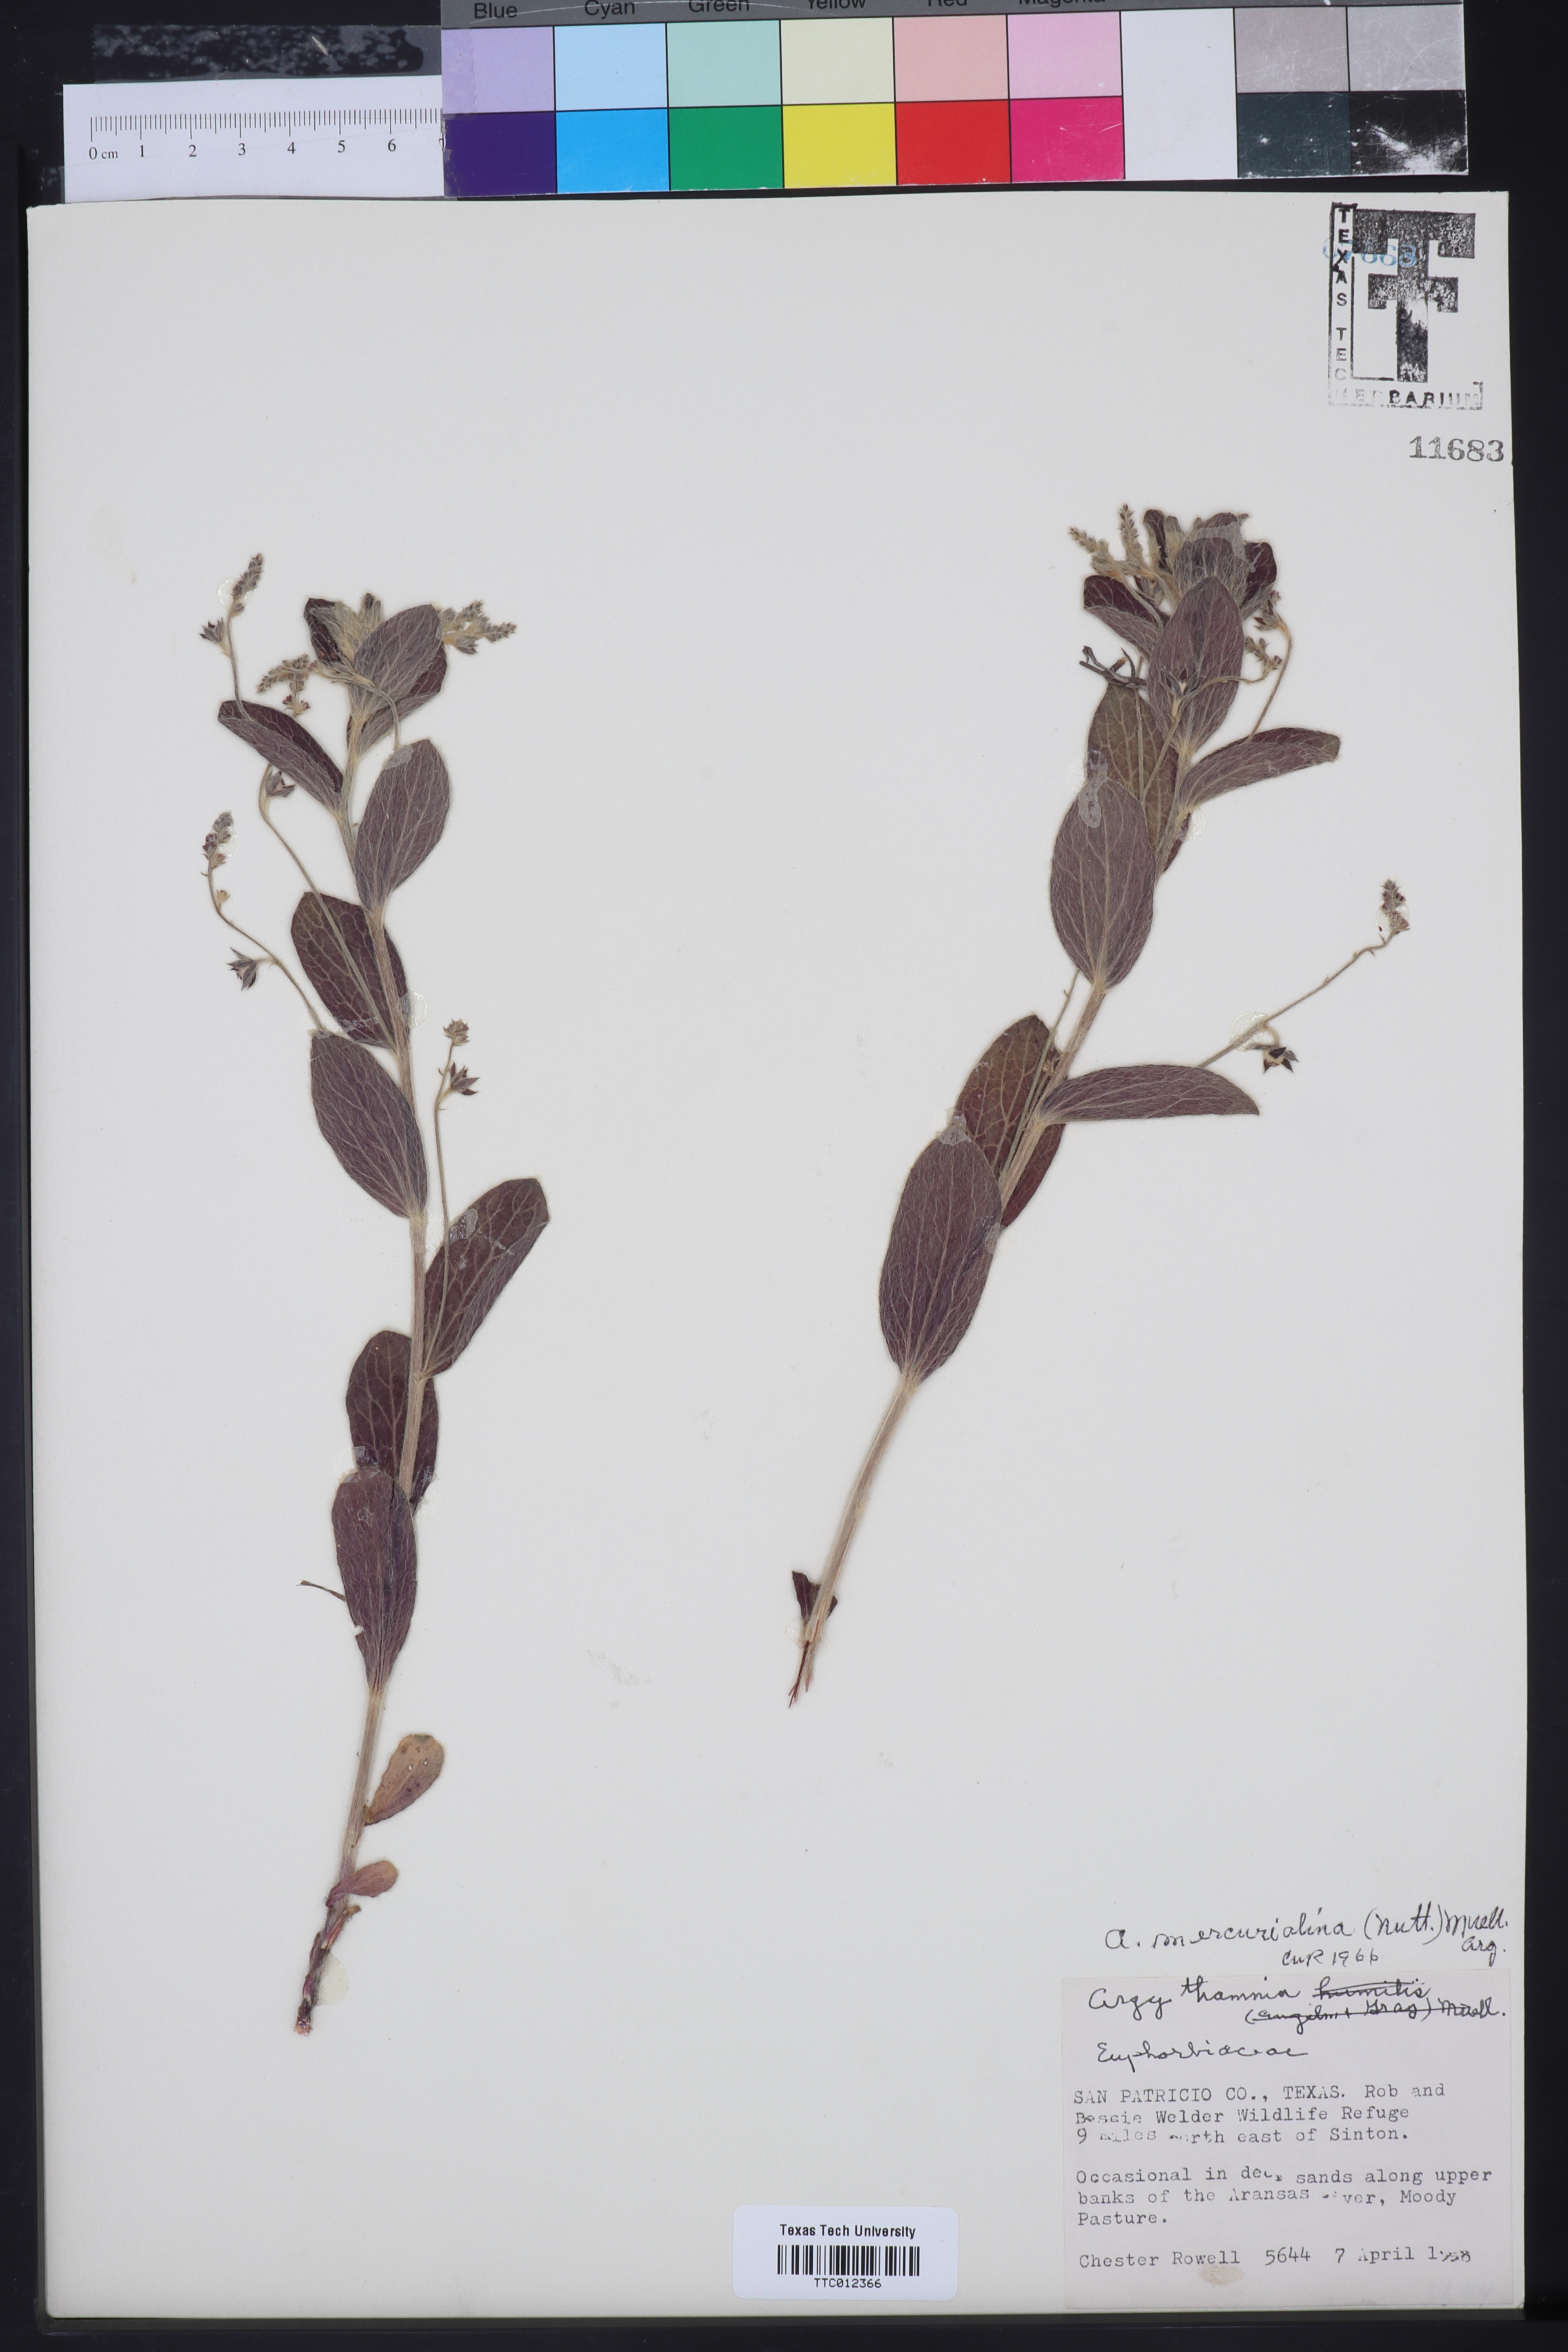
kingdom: Plantae
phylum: Tracheophyta
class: Magnoliopsida
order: Malpighiales
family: Euphorbiaceae
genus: Ditaxis
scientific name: Ditaxis mercurialina
